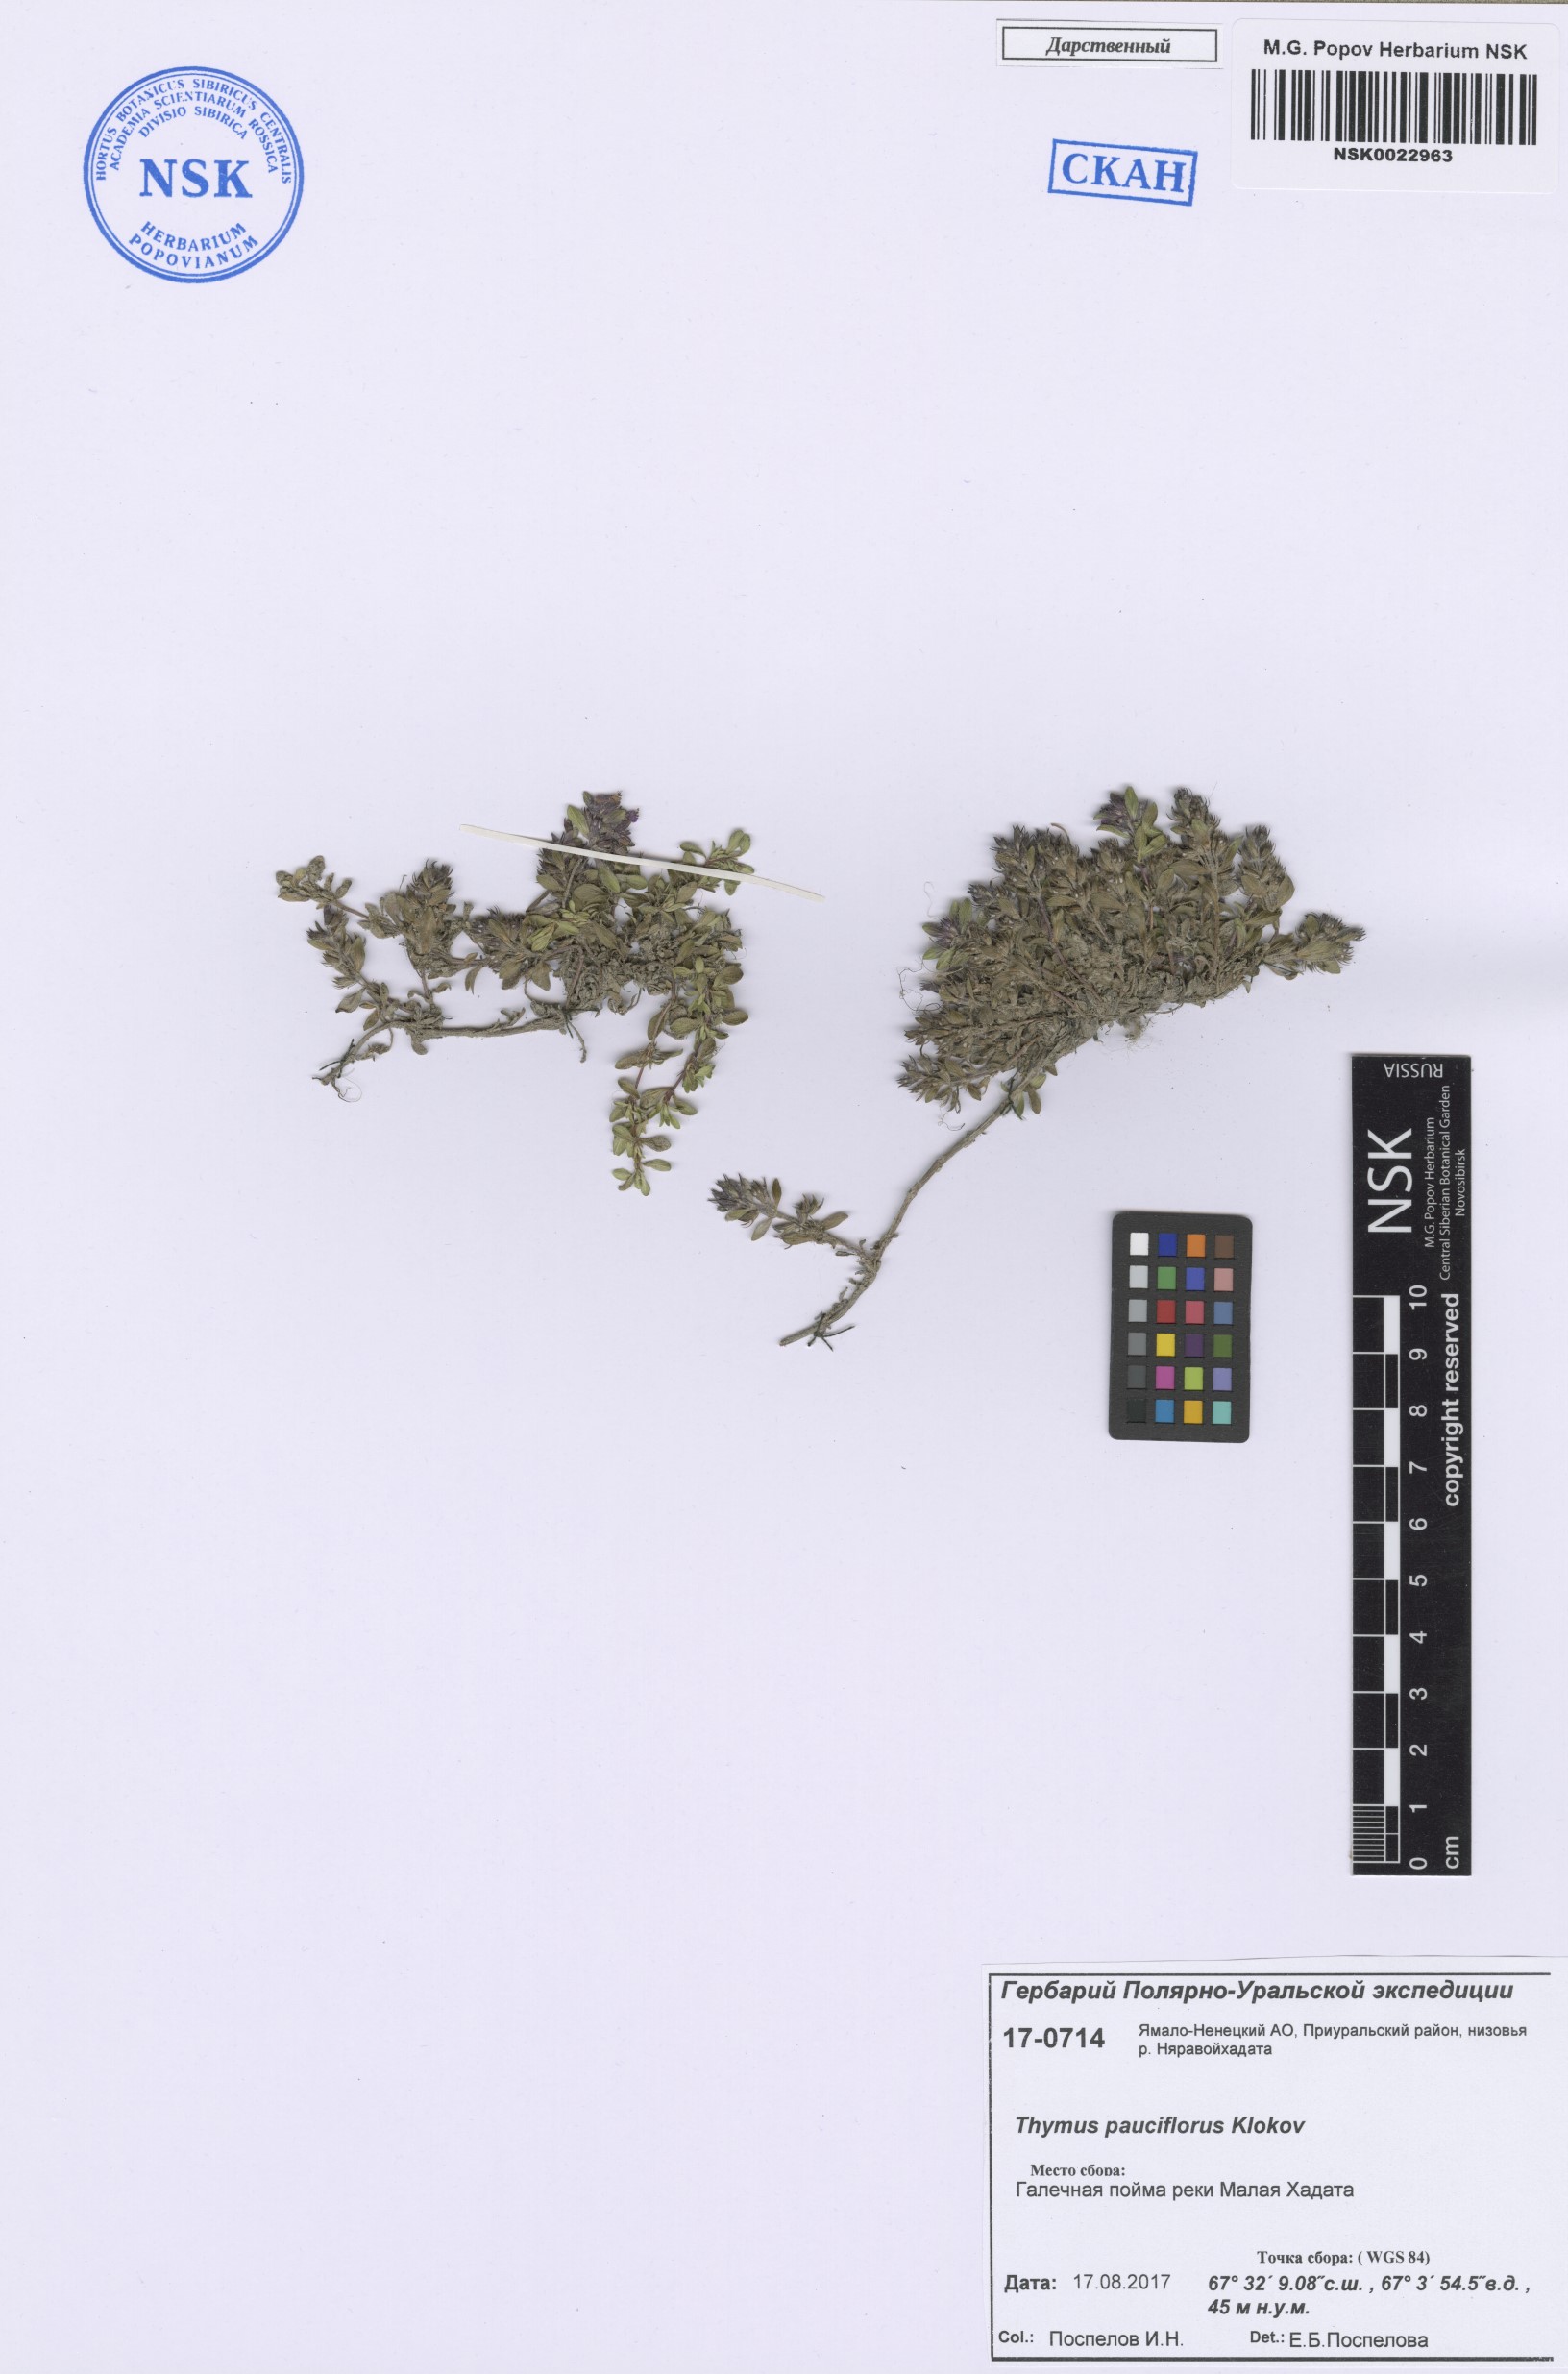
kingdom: Plantae
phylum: Tracheophyta
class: Magnoliopsida
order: Lamiales
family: Lamiaceae
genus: Thymus
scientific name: Thymus pauciflorus
